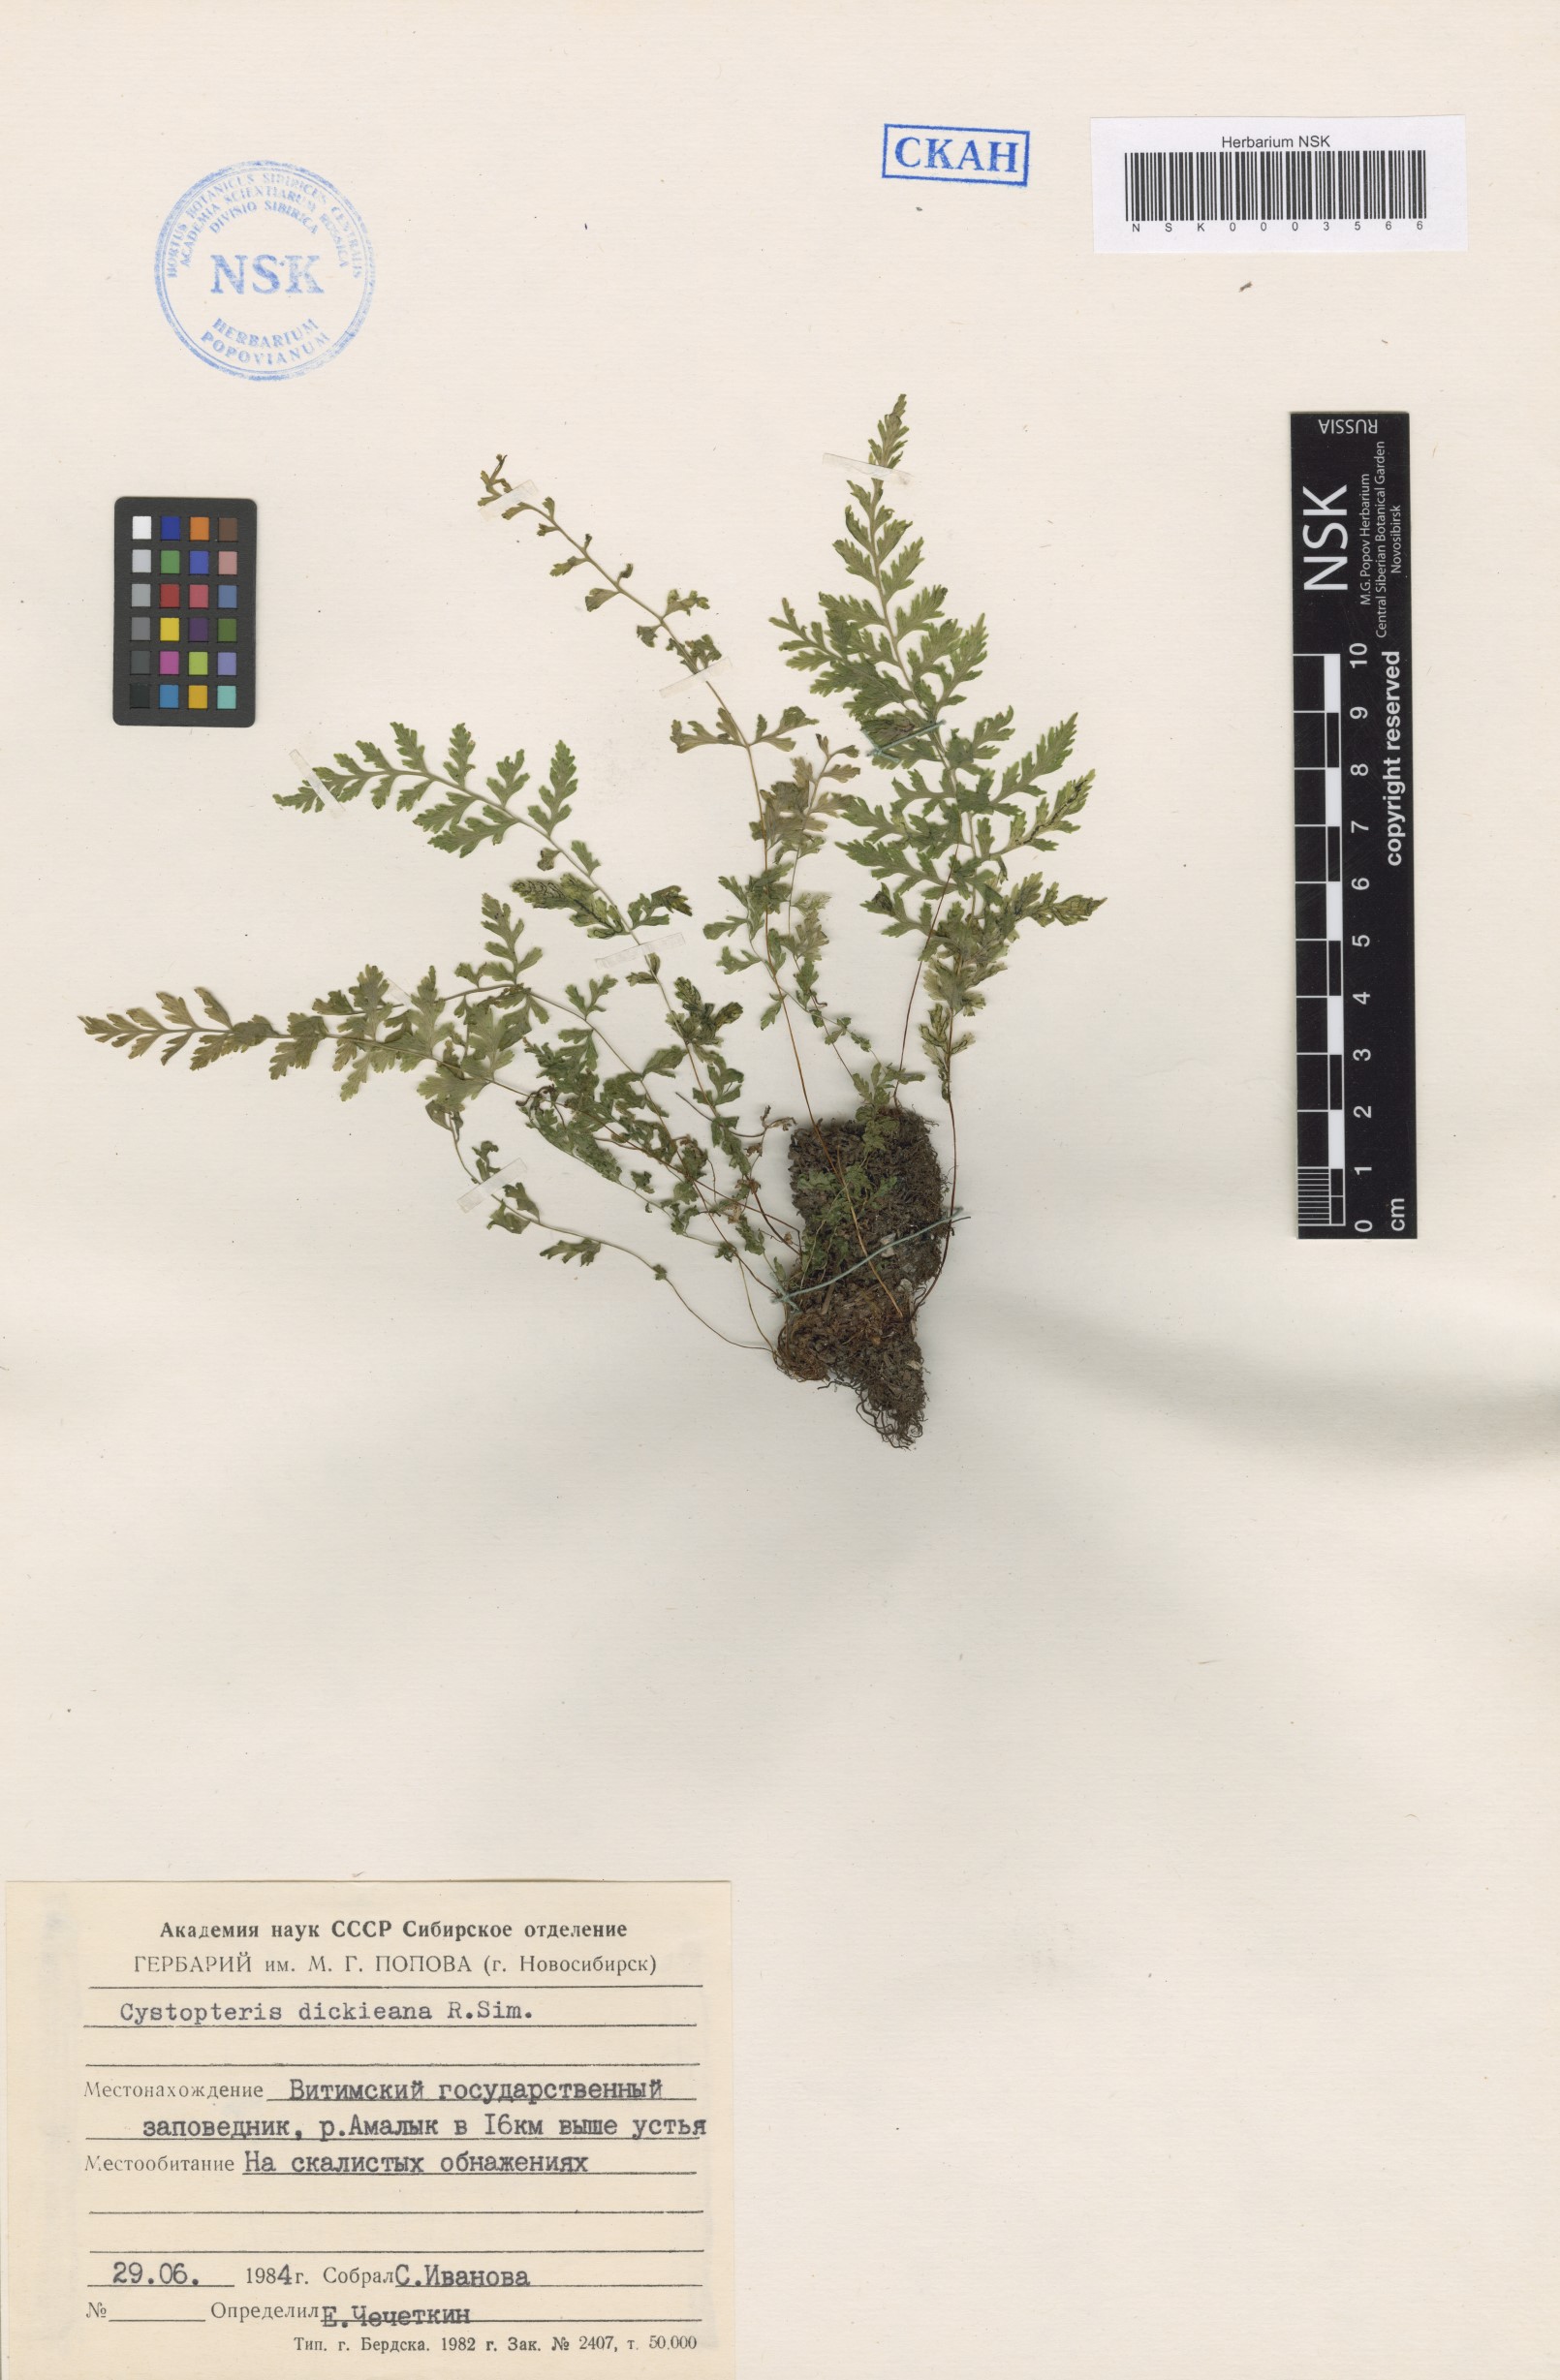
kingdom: Plantae
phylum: Tracheophyta
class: Polypodiopsida
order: Polypodiales
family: Cystopteridaceae
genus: Cystopteris
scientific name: Cystopteris dickieana
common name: Dickie's bladder-fern
